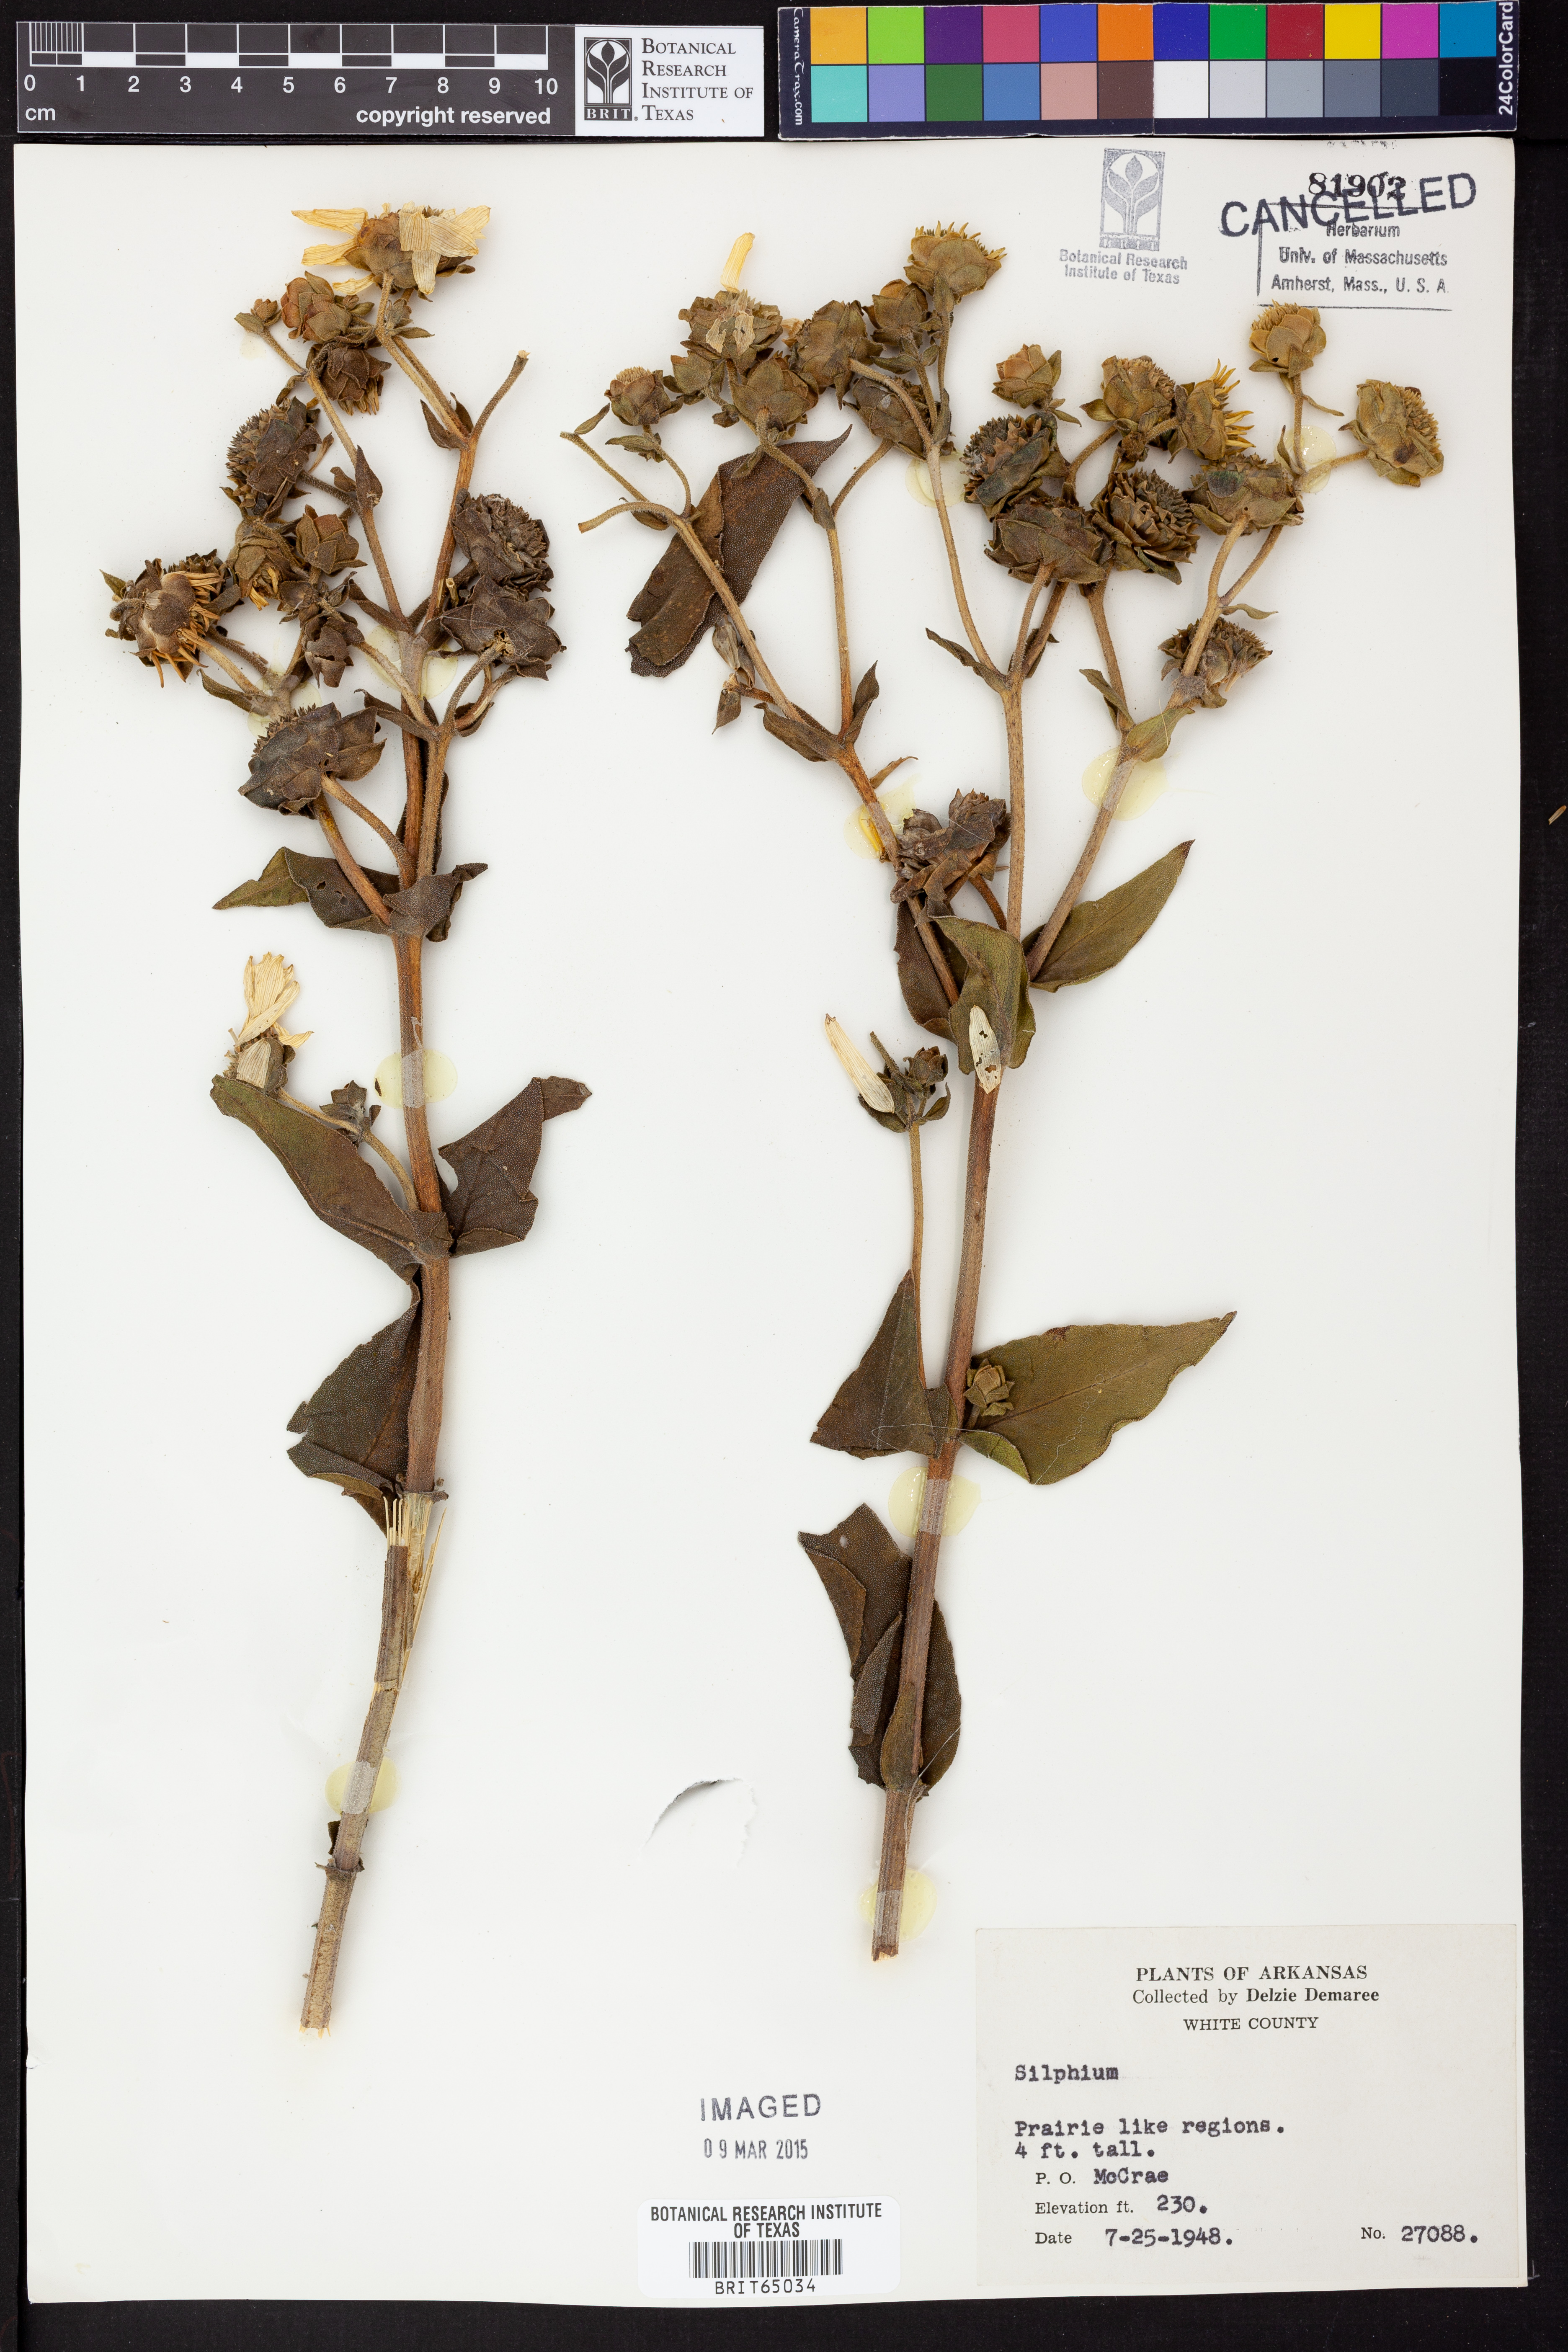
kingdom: Plantae
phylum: Tracheophyta
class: Magnoliopsida
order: Asterales
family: Asteraceae
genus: Silphium
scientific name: Silphium
